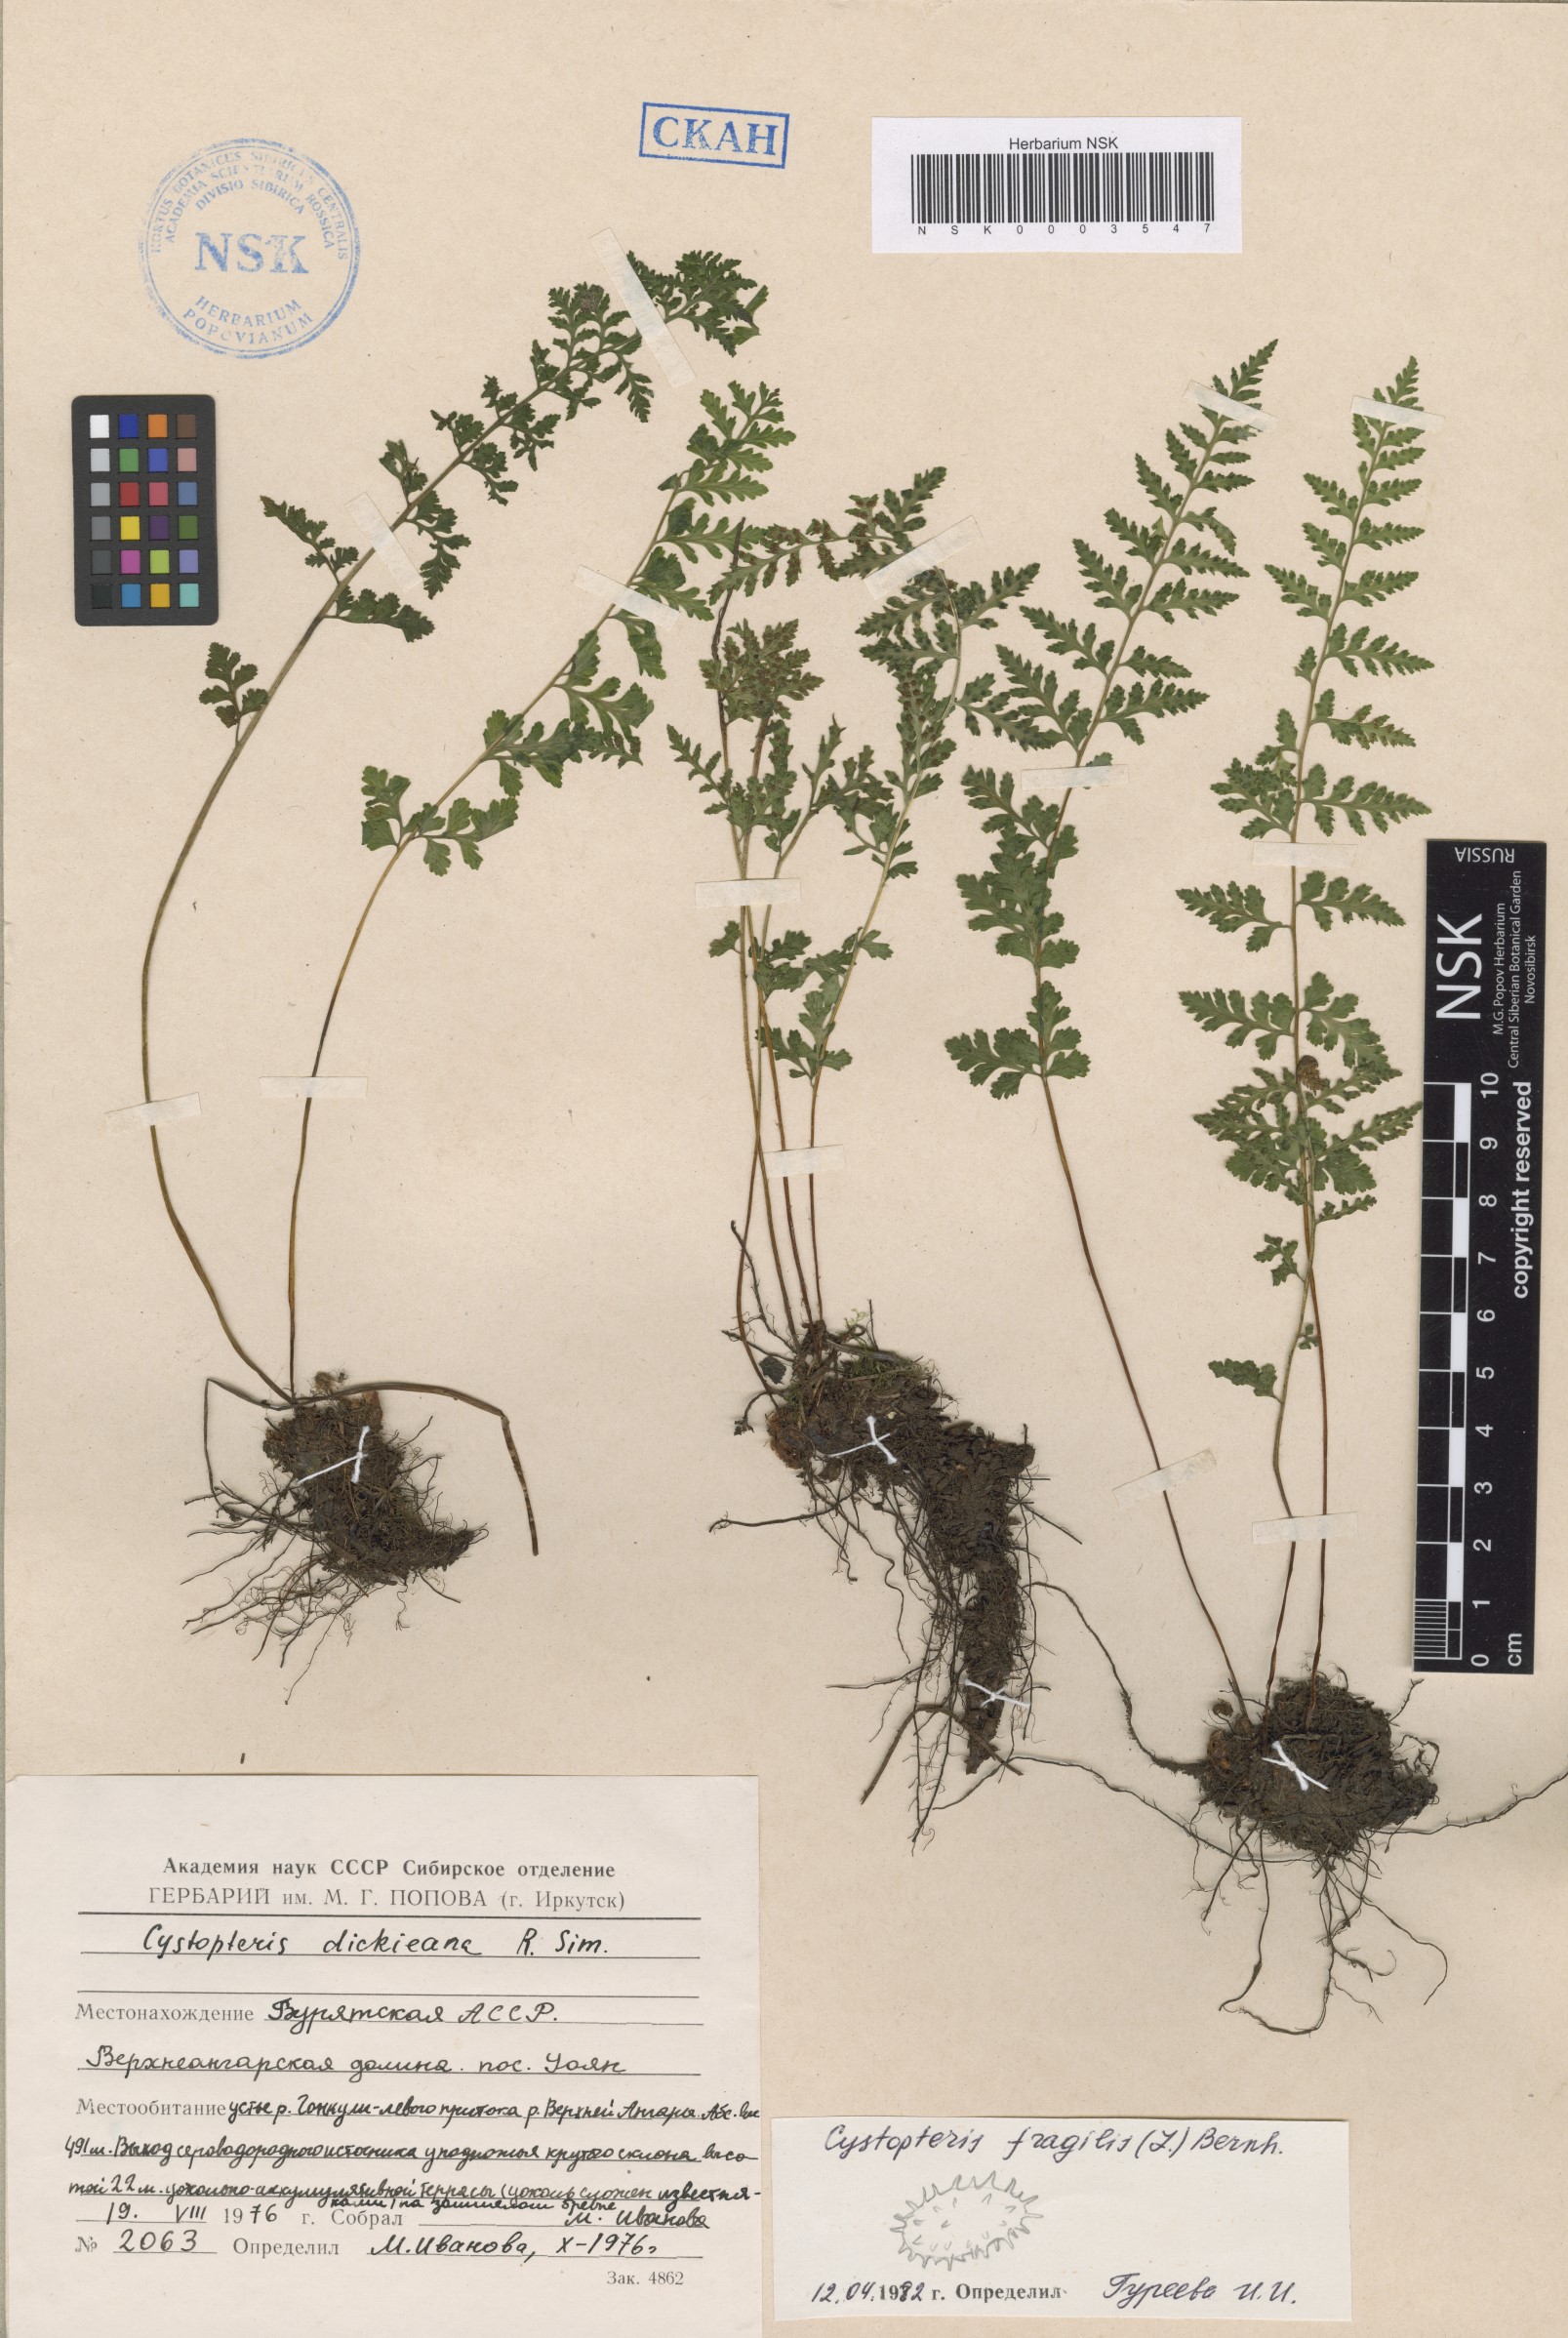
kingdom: Plantae
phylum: Tracheophyta
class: Polypodiopsida
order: Polypodiales
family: Cystopteridaceae
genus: Cystopteris
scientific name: Cystopteris fragilis
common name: Brittle bladder fern
